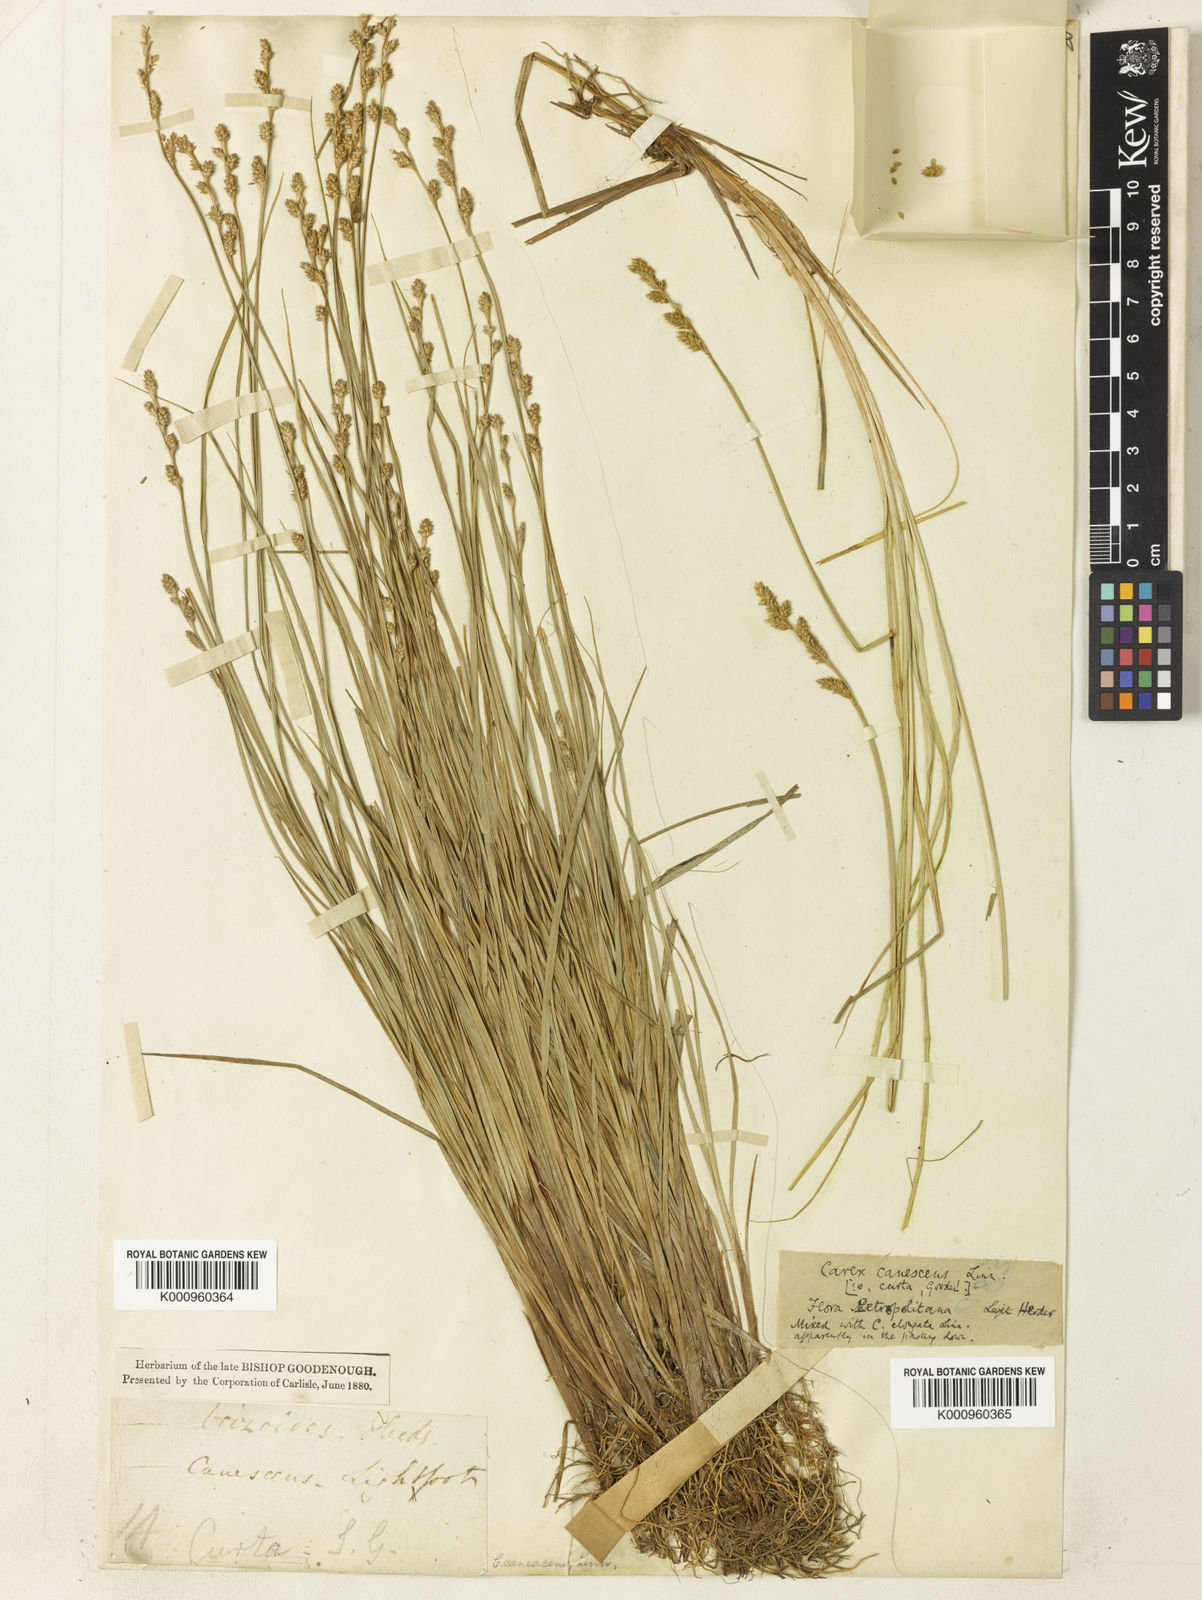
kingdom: Plantae
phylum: Tracheophyta
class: Liliopsida
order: Poales
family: Cyperaceae
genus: Carex
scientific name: Carex curta
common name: White sedge
